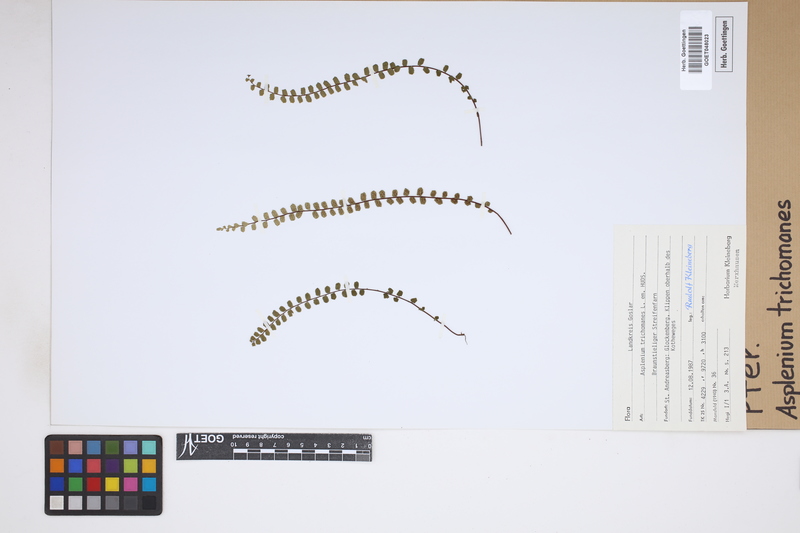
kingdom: Plantae
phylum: Tracheophyta
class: Polypodiopsida
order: Polypodiales
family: Aspleniaceae
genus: Asplenium
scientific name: Asplenium trichomanes
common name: Maidenhair spleenwort
